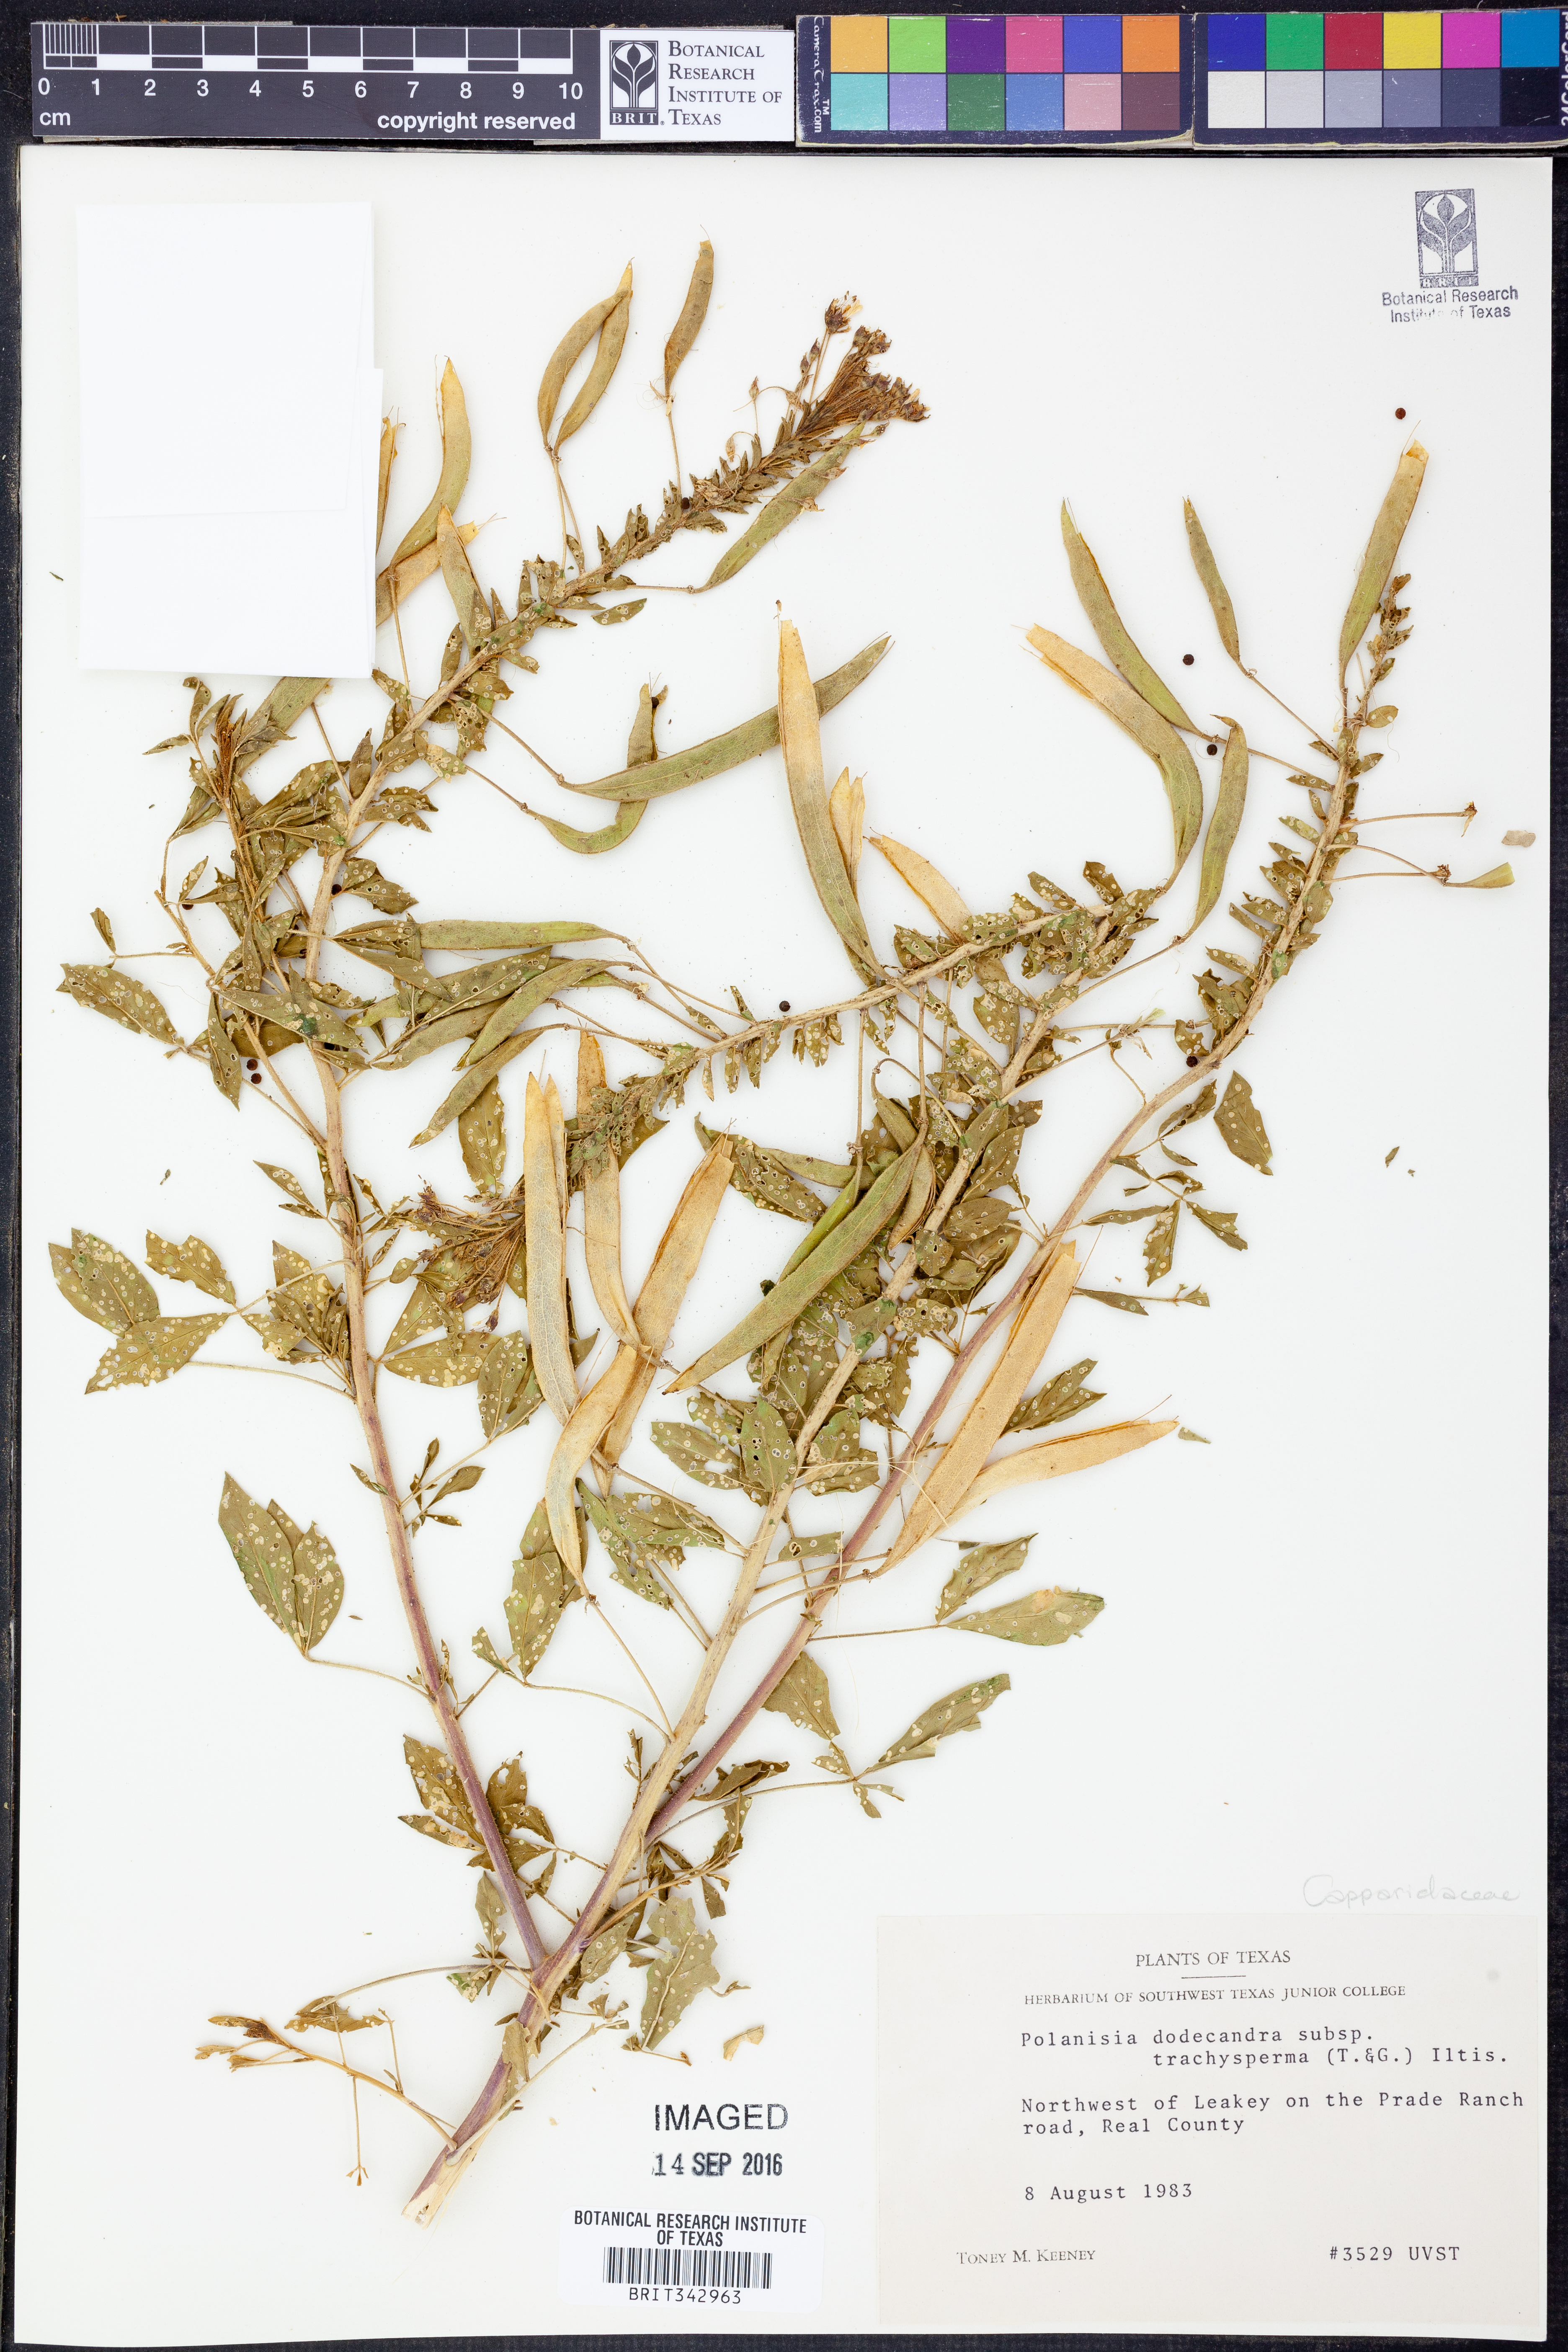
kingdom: Plantae
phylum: Tracheophyta
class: Magnoliopsida
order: Brassicales
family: Cleomaceae
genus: Polanisia
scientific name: Polanisia trachysperma
